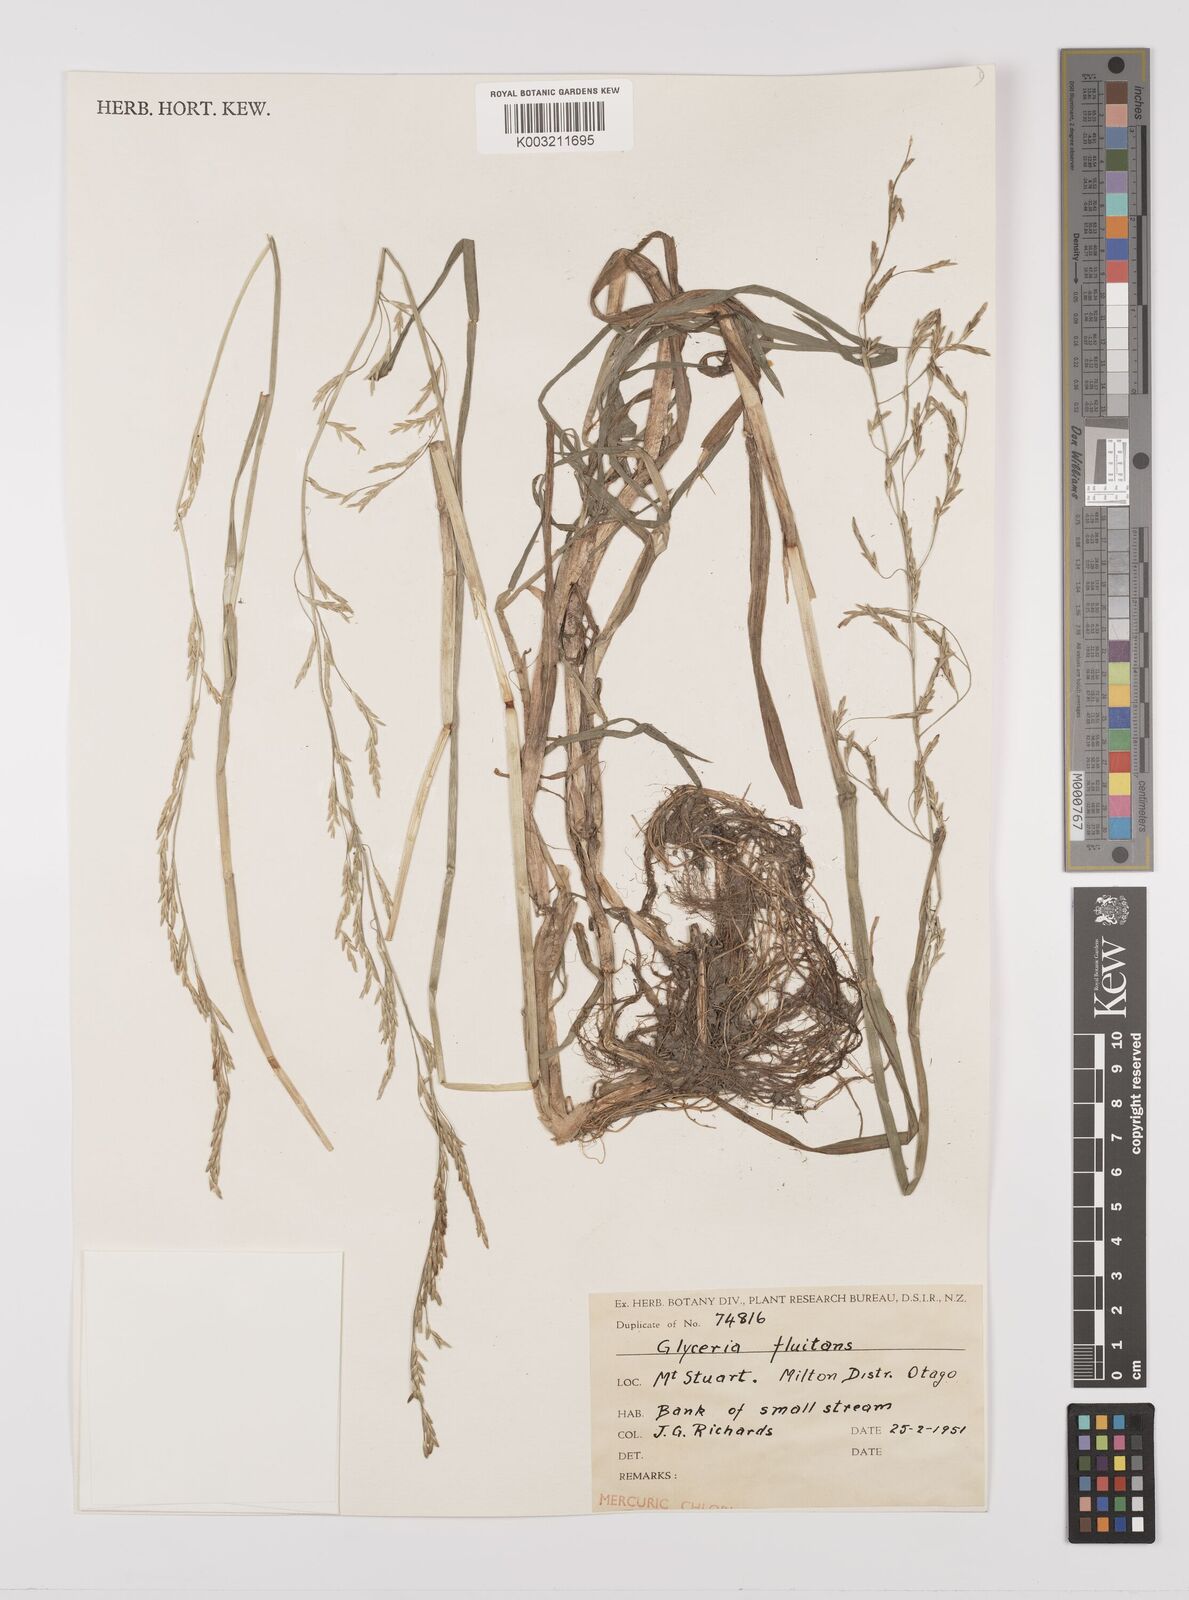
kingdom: Plantae
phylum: Tracheophyta
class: Liliopsida
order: Poales
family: Poaceae
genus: Glyceria
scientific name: Glyceria fluitans
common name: Floating sweet-grass
